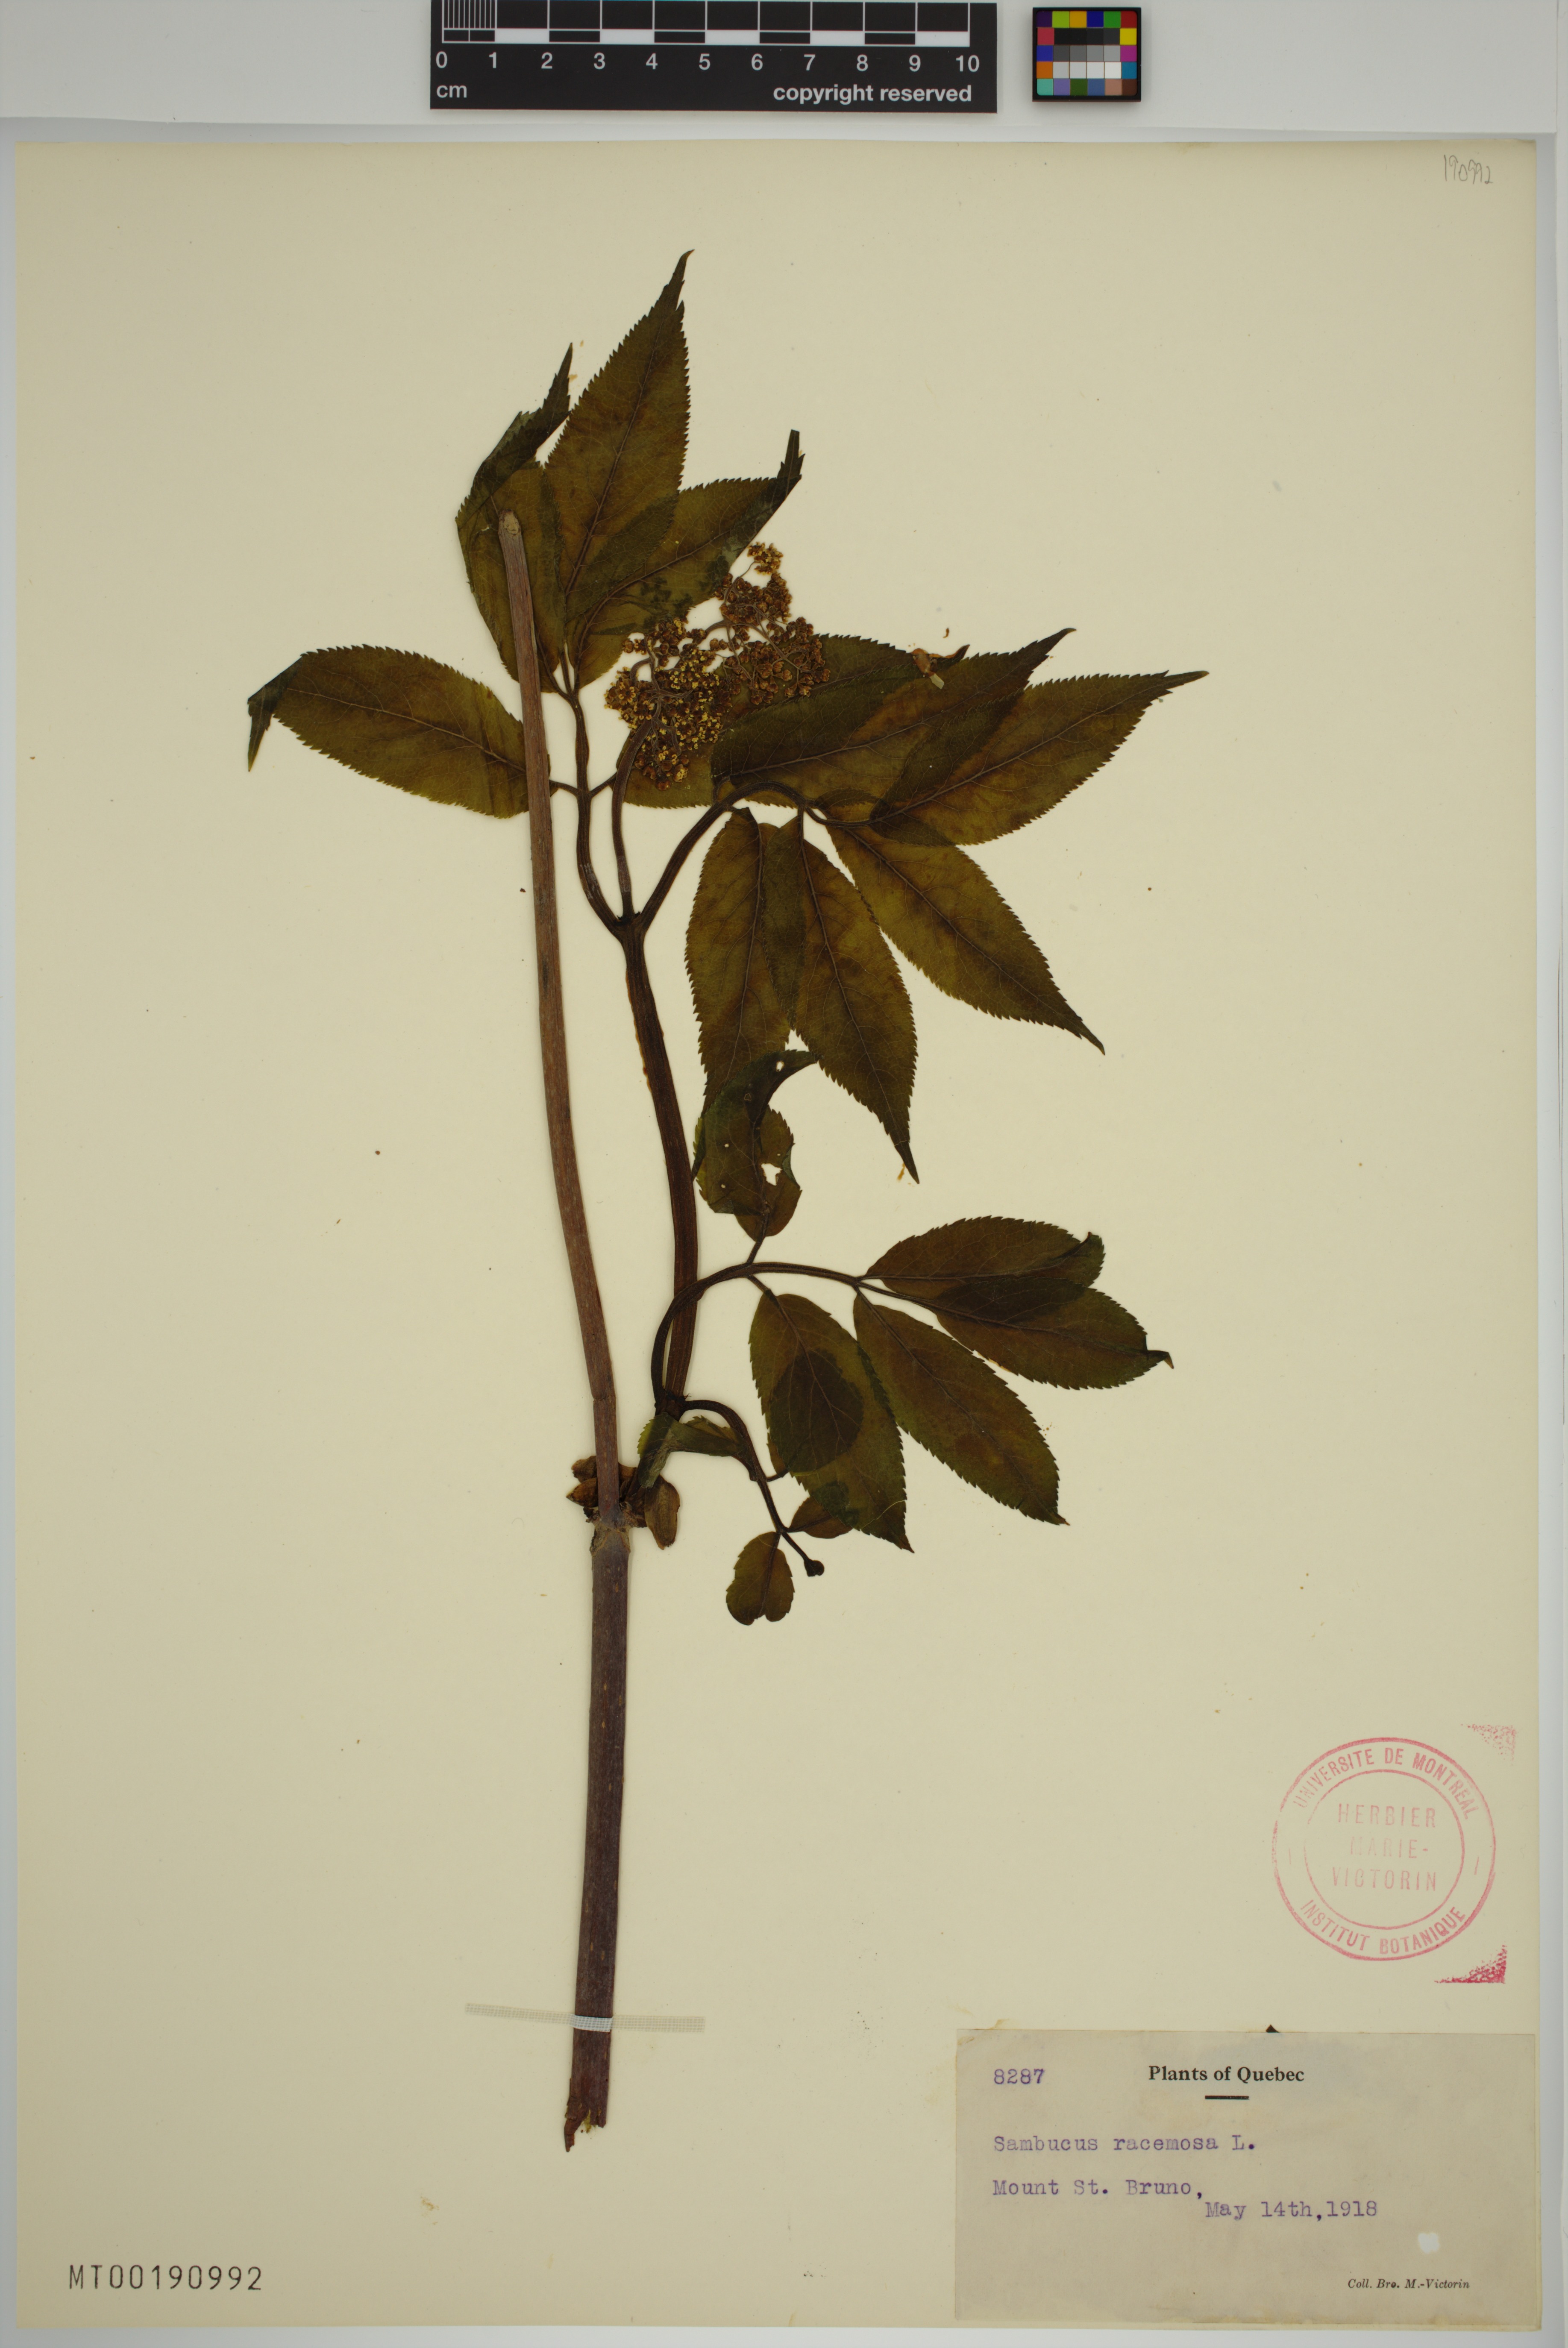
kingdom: Plantae
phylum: Tracheophyta
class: Magnoliopsida
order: Dipsacales
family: Viburnaceae
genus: Sambucus
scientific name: Sambucus racemosa
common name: Red-berried elder
